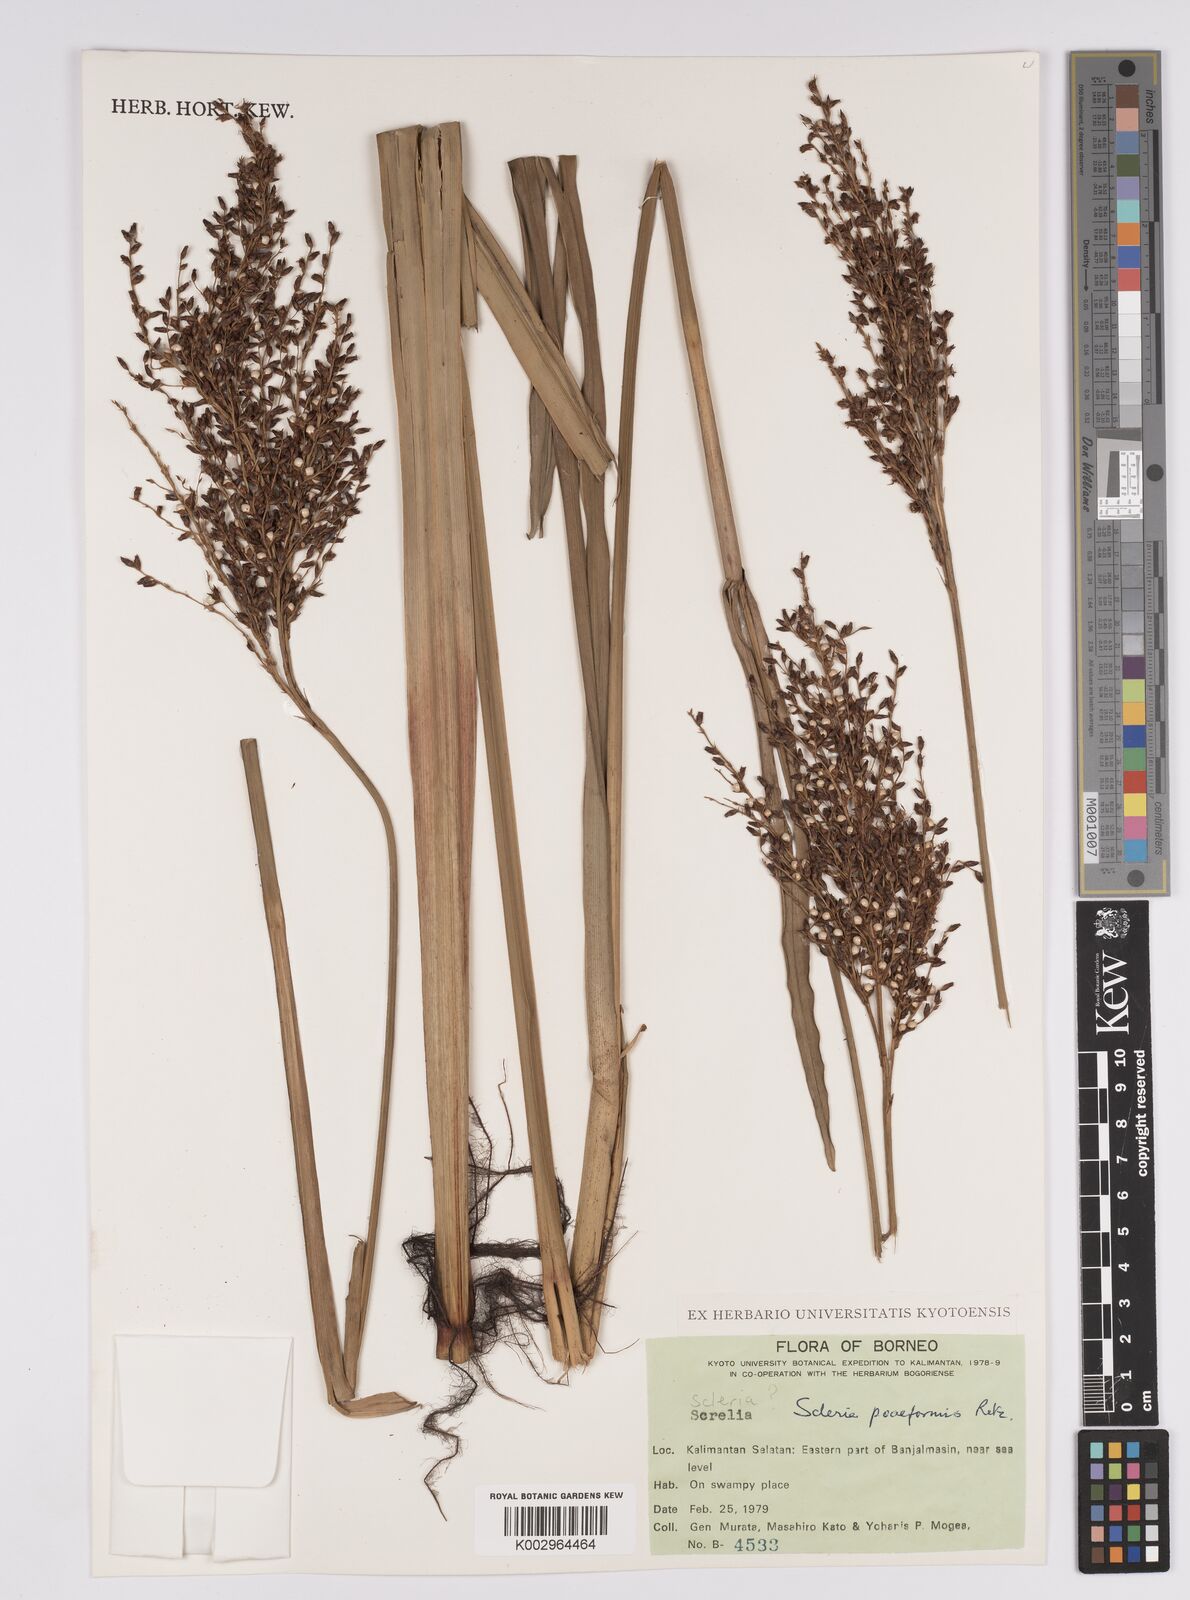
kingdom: Plantae
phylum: Tracheophyta
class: Liliopsida
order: Poales
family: Cyperaceae
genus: Scleria
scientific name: Scleria poiformis
